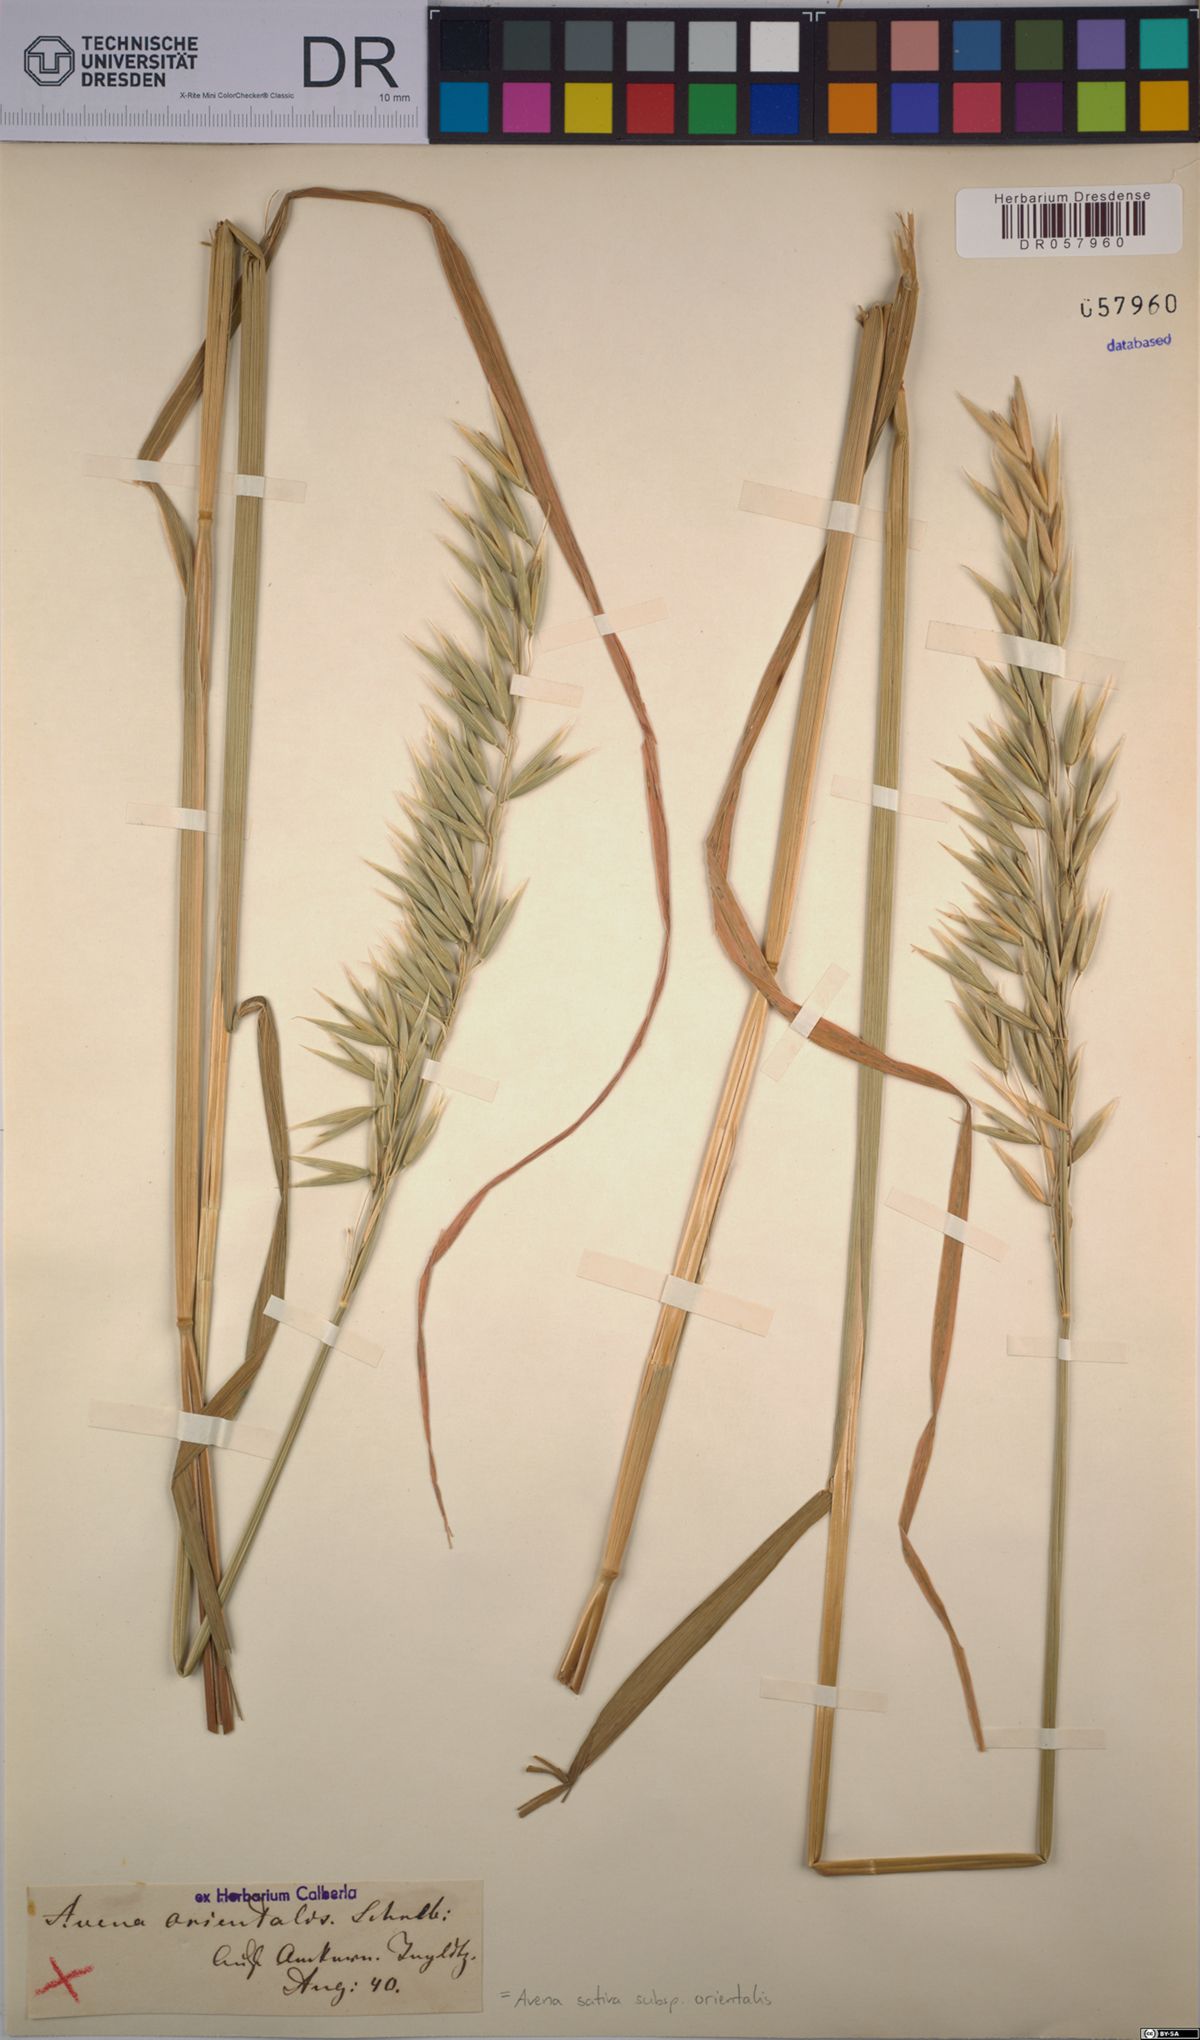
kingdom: Plantae
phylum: Tracheophyta
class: Liliopsida
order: Poales
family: Poaceae
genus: Avena
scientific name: Avena sativa
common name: Oat
